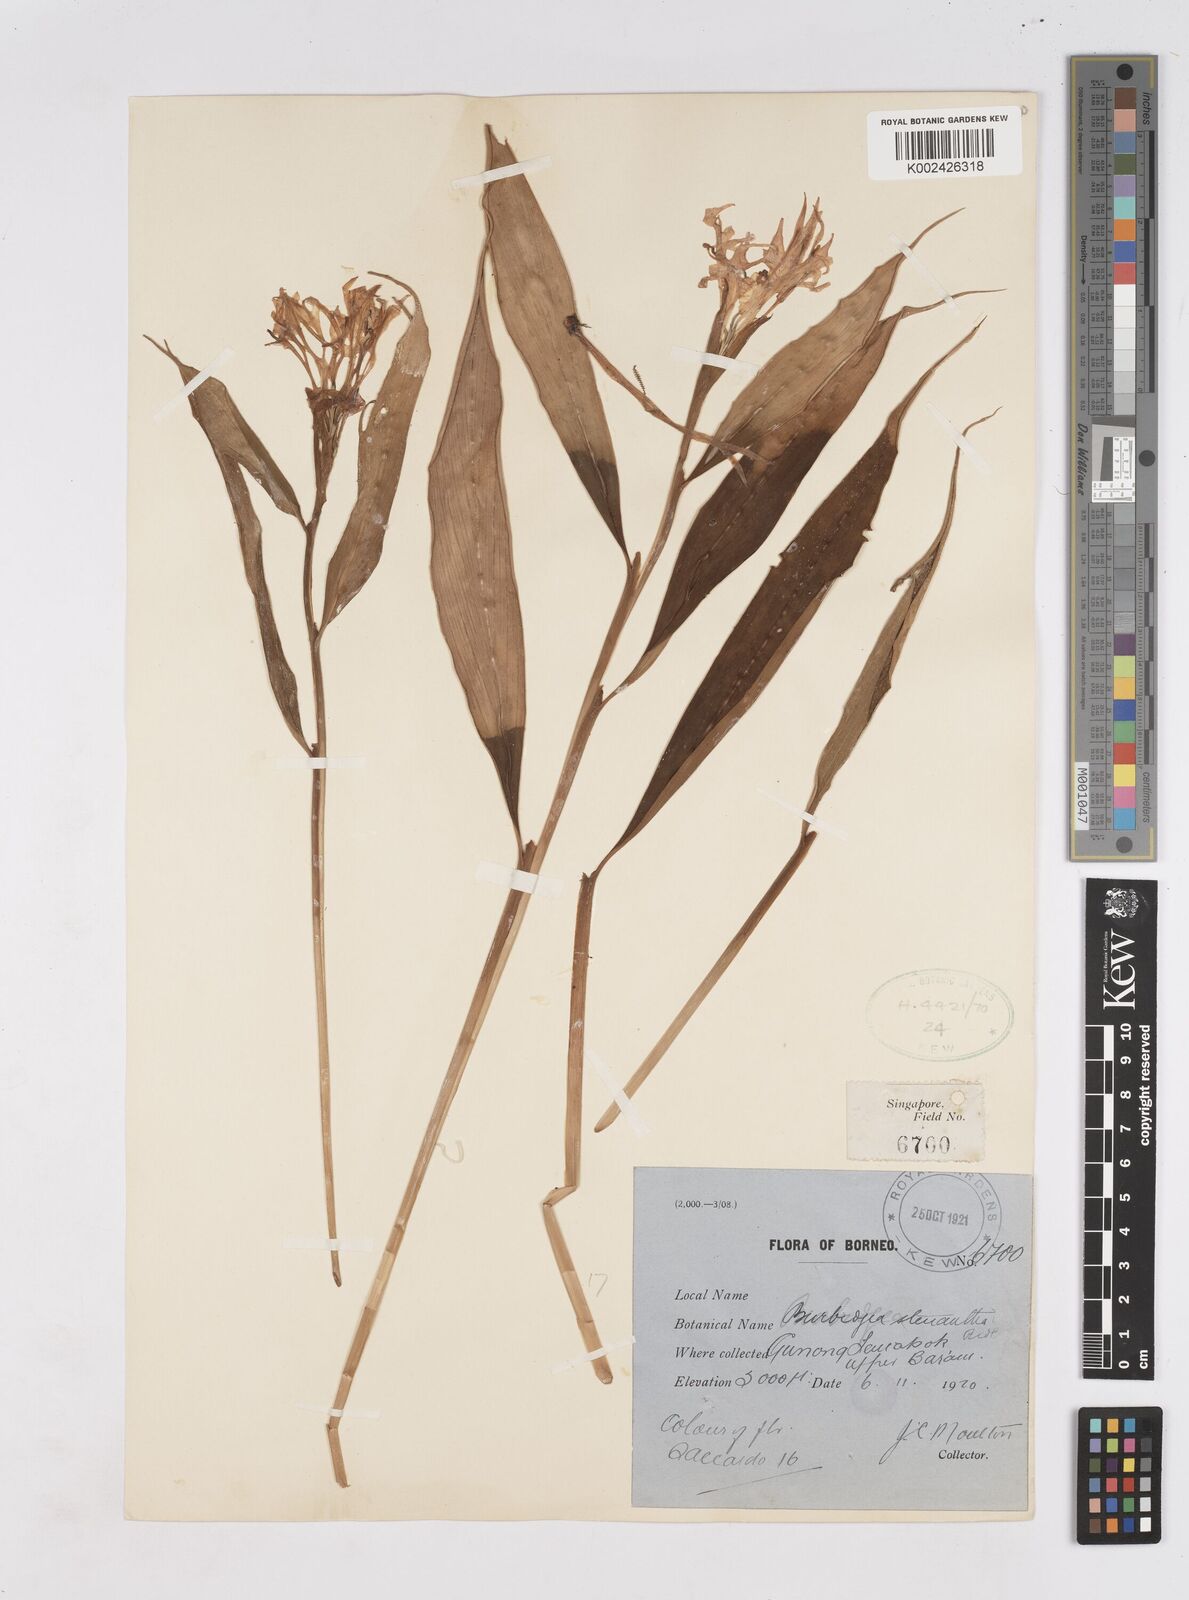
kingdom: Plantae
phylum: Tracheophyta
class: Liliopsida
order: Zingiberales
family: Zingiberaceae
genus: Burbidgea
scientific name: Burbidgea stenantha
